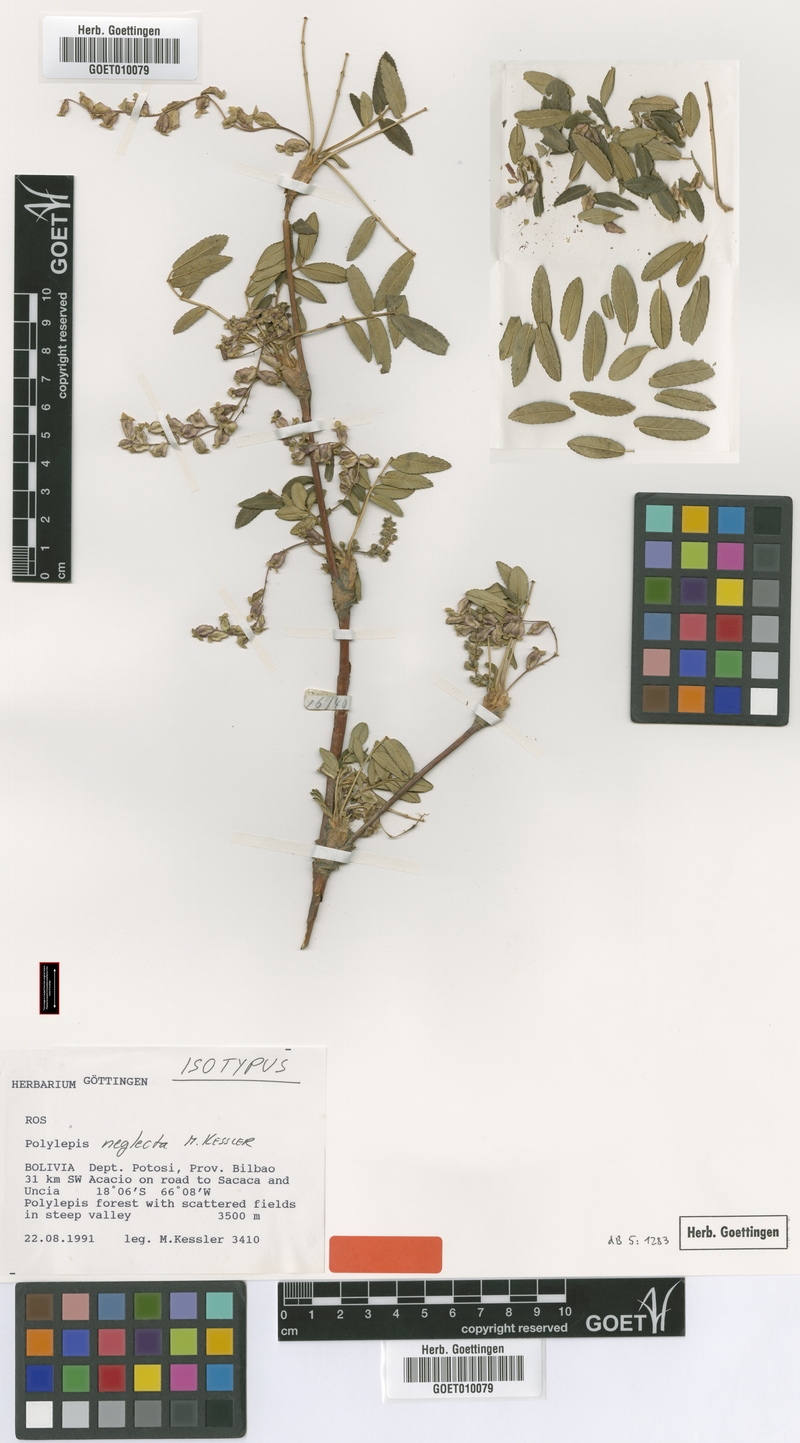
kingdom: Plantae
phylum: Tracheophyta
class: Magnoliopsida
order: Rosales
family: Rosaceae
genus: Polylepis
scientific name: Polylepis neglecta
